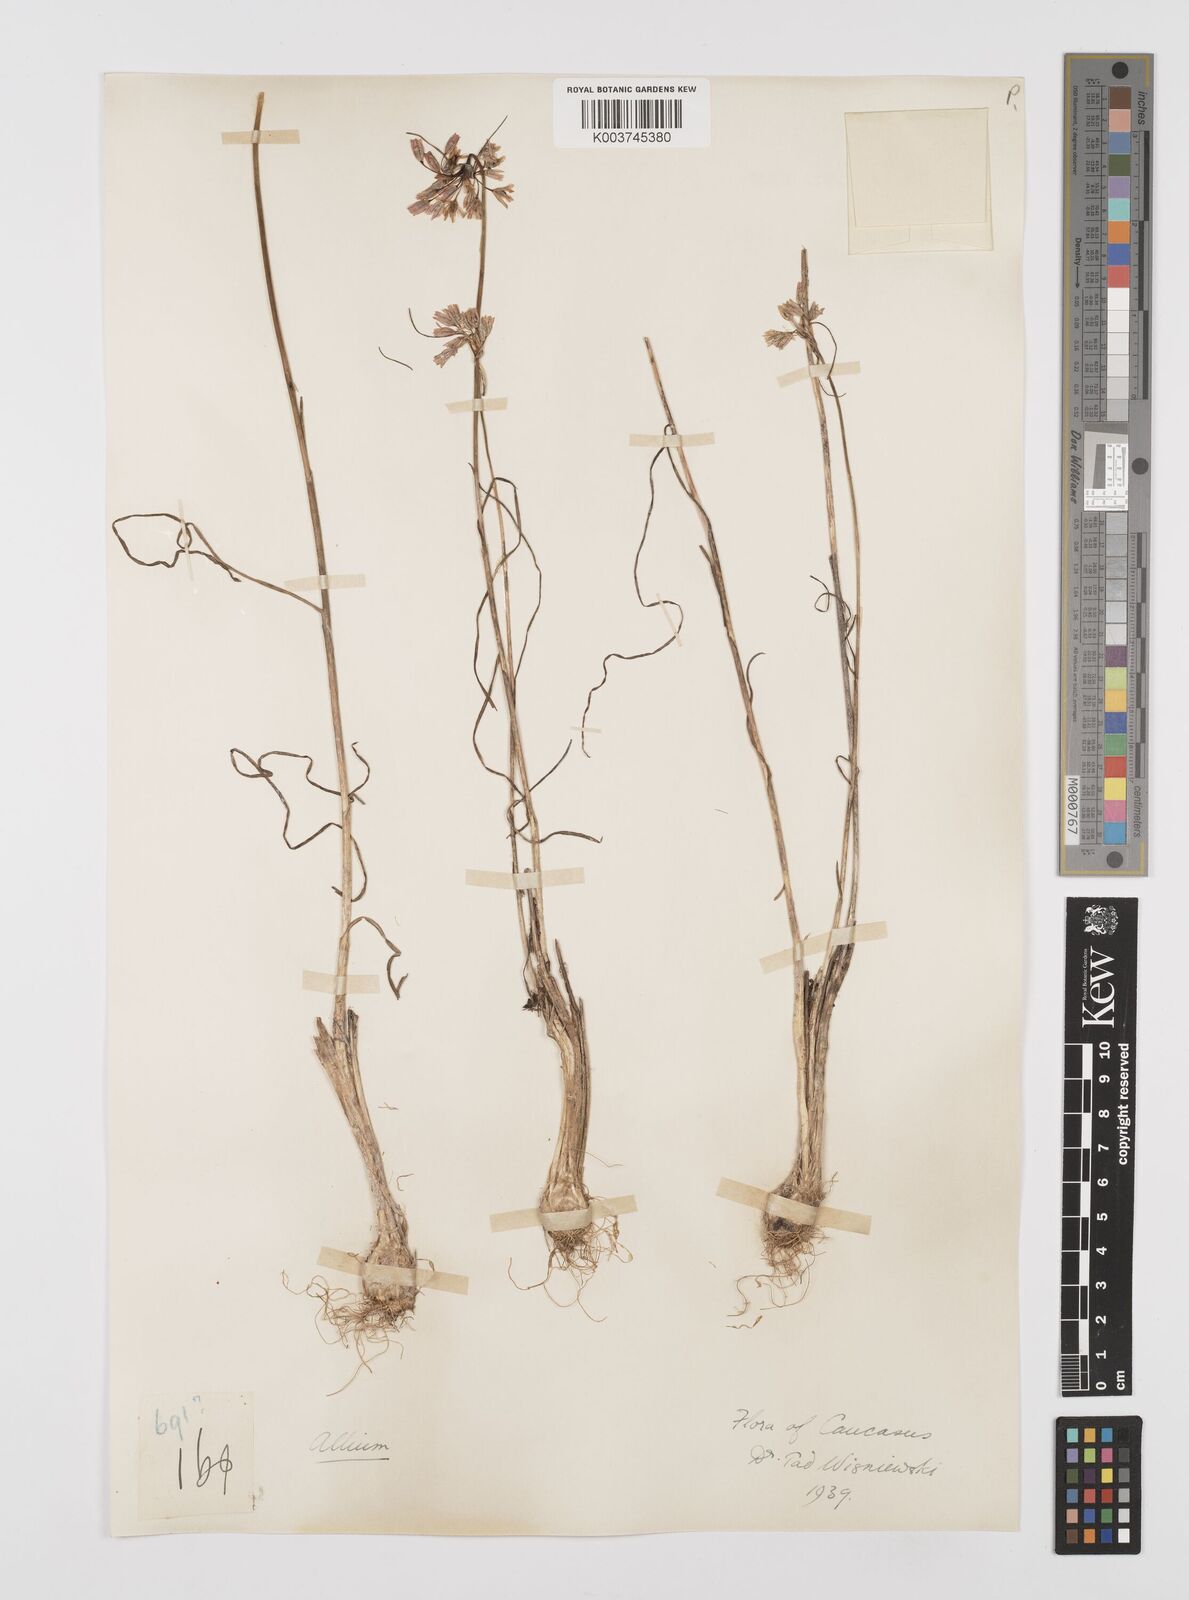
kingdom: Plantae
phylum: Tracheophyta
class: Liliopsida
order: Asparagales
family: Amaryllidaceae
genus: Allium
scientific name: Allium
